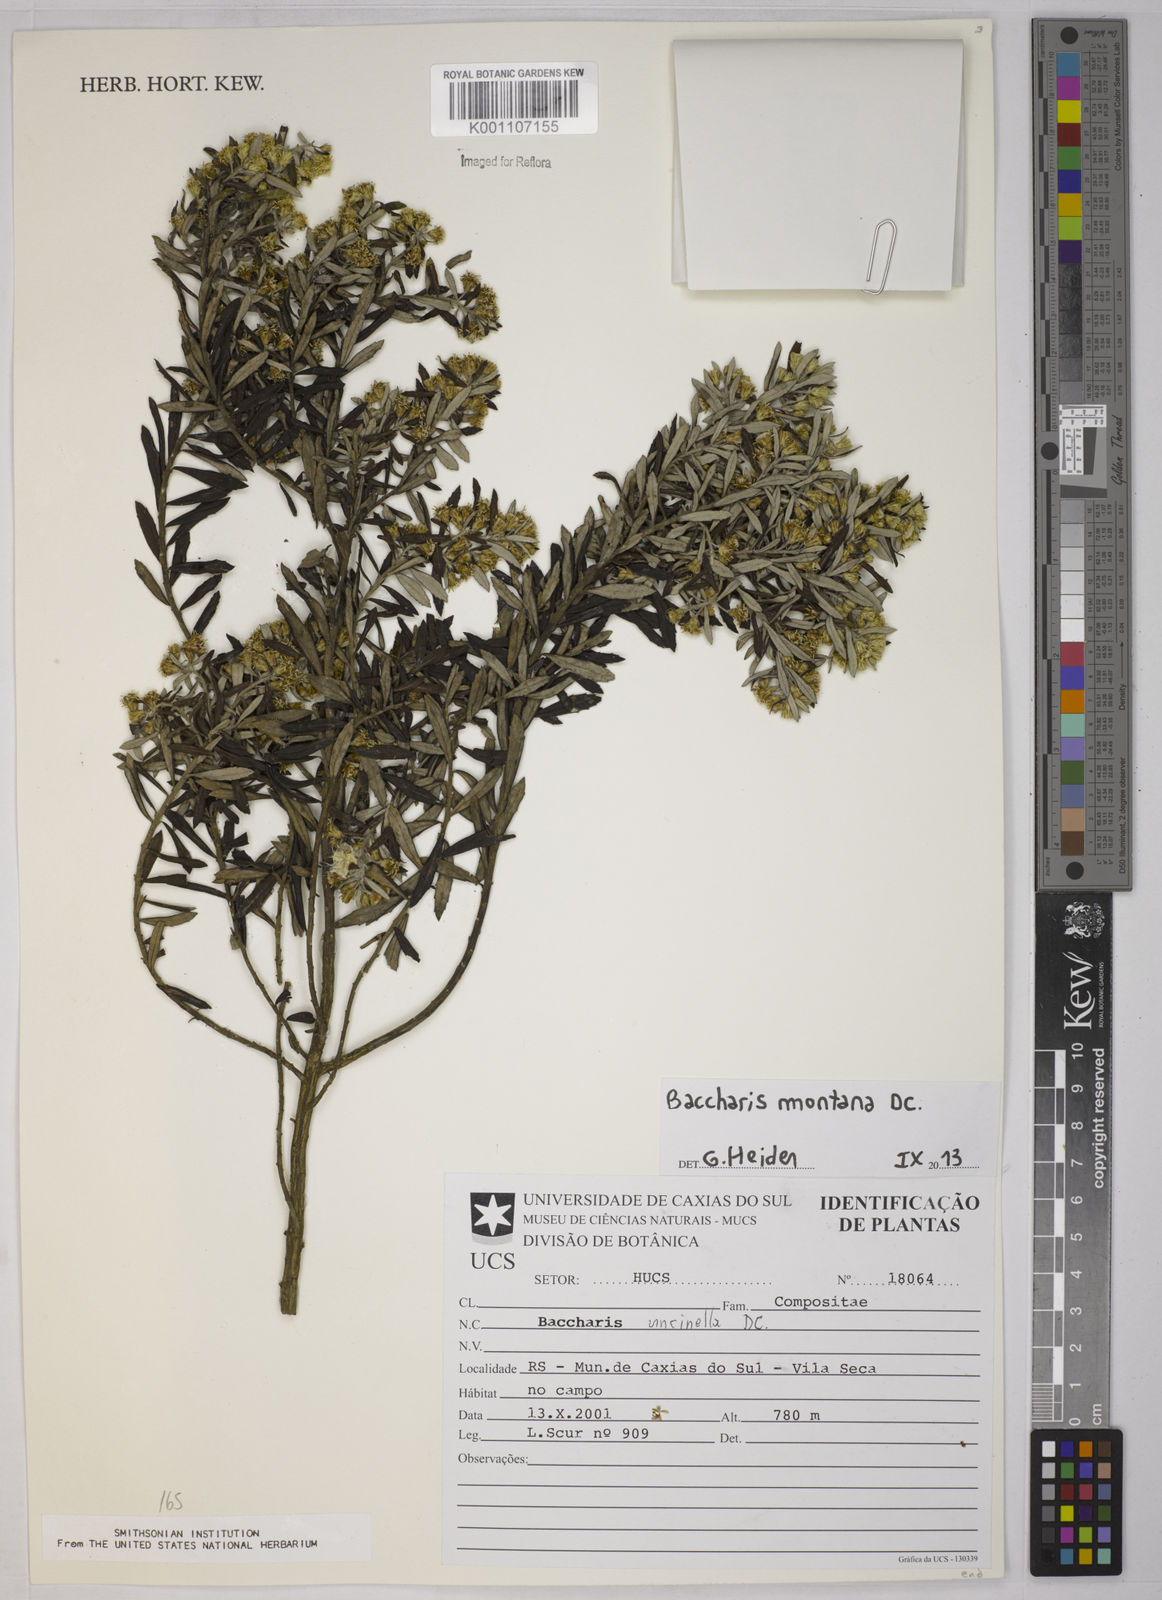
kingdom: Plantae
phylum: Tracheophyta
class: Magnoliopsida
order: Asterales
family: Asteraceae
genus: Baccharis
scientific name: Baccharis montana
